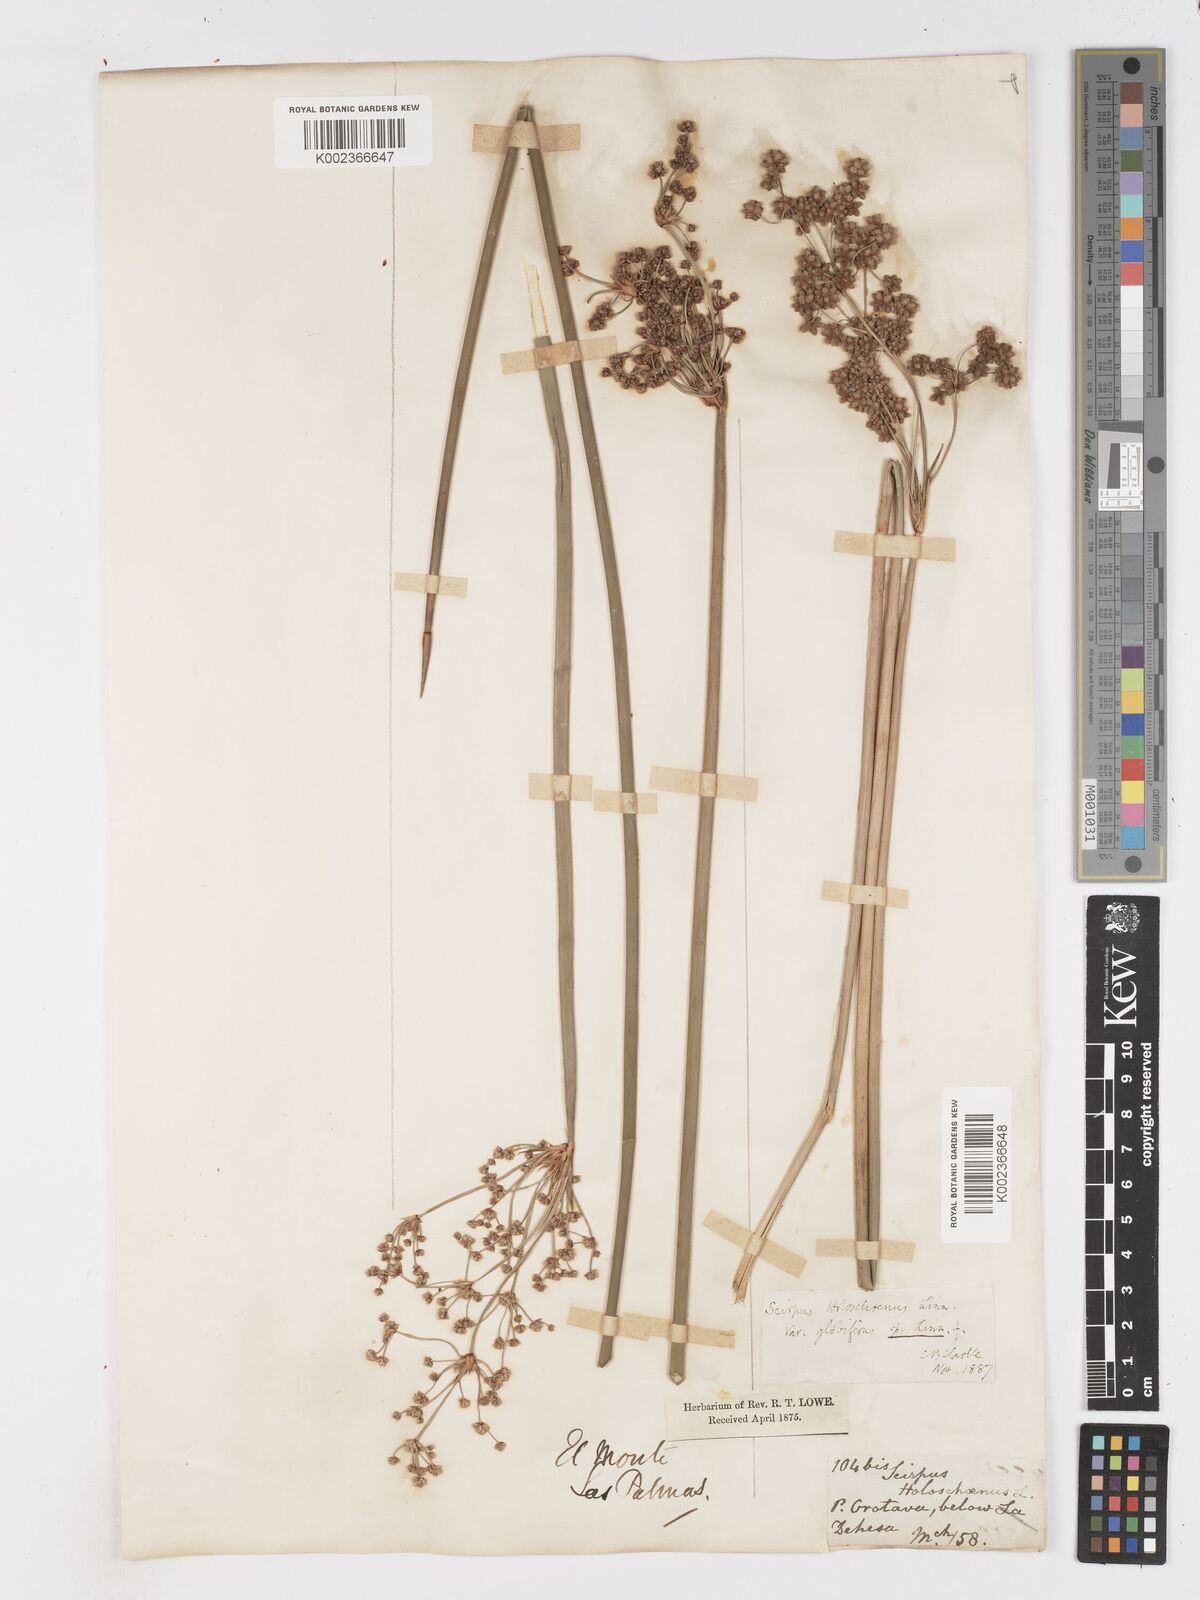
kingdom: Plantae
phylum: Tracheophyta
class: Liliopsida
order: Poales
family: Cyperaceae
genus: Scirpoides
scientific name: Scirpoides holoschoenus
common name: Round-headed club-rush
